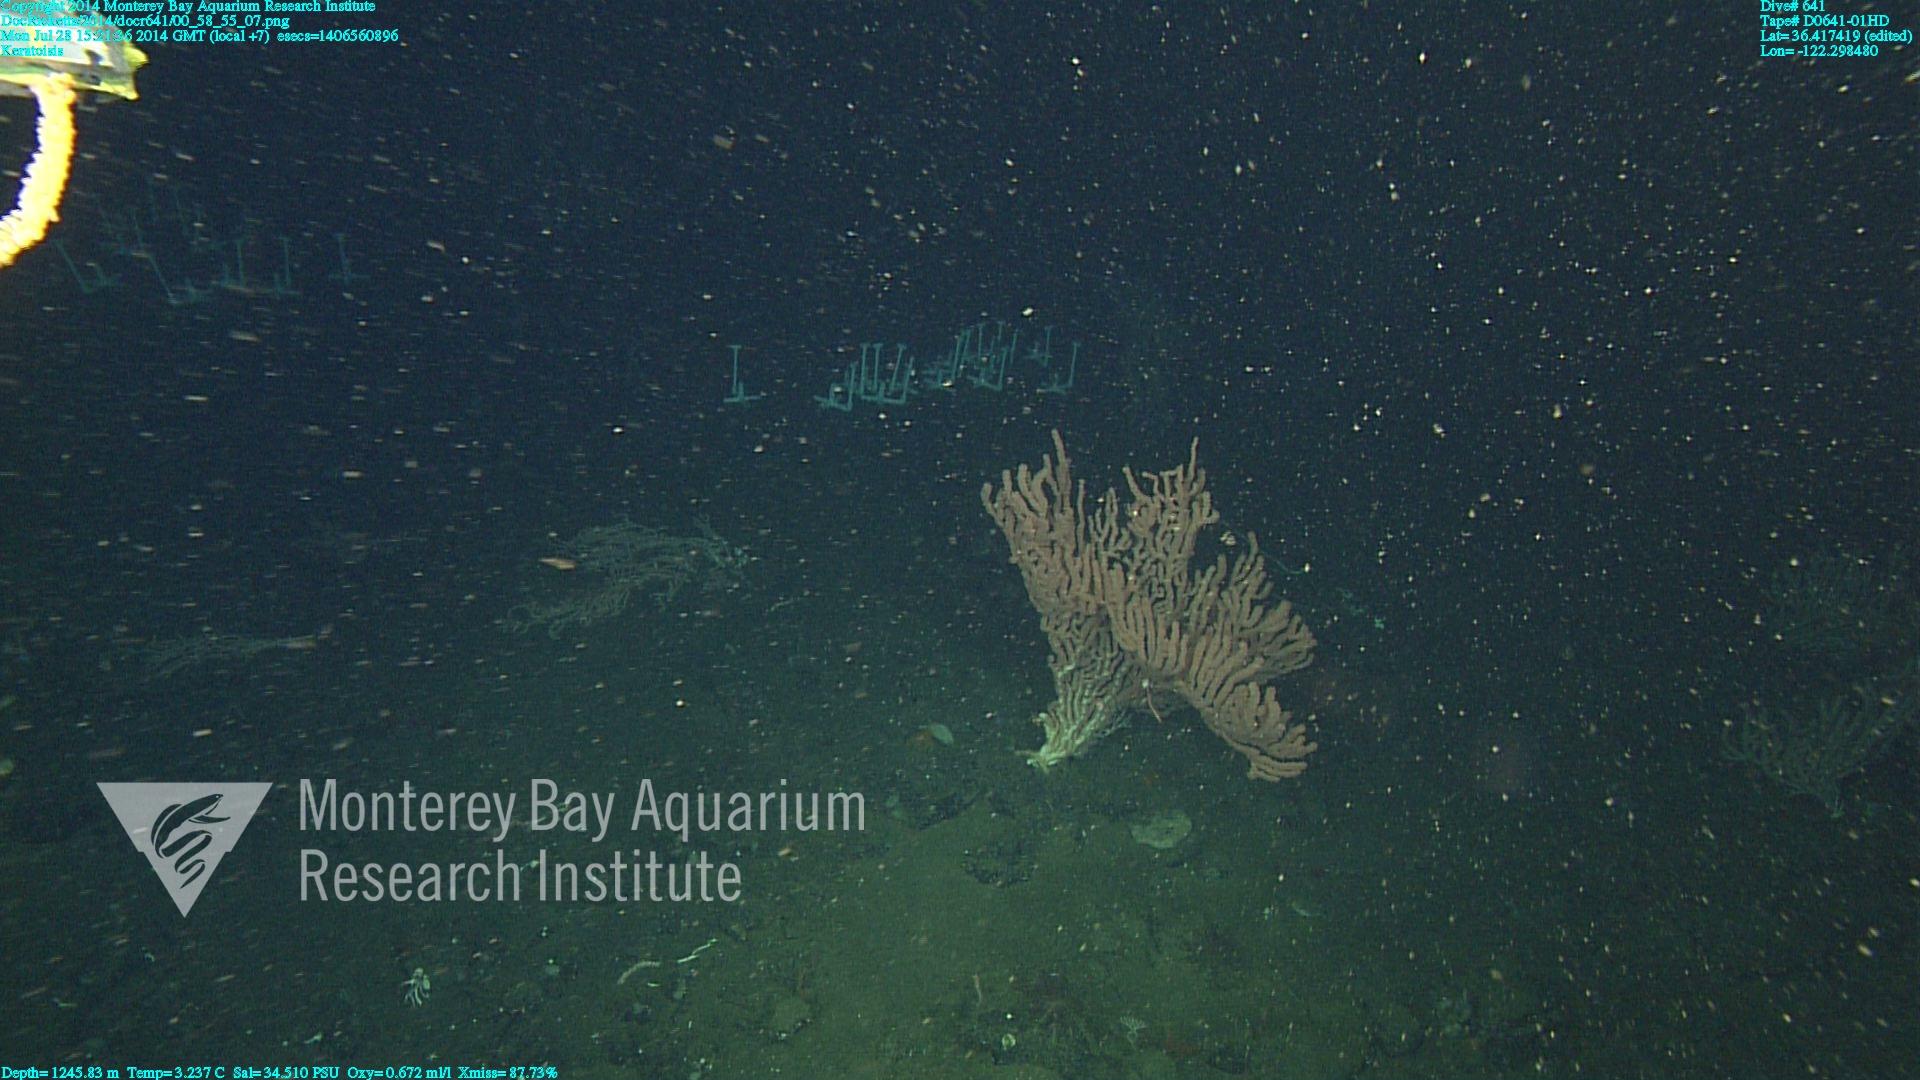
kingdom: Animalia
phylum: Cnidaria
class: Anthozoa
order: Scleralcyonacea
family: Keratoisididae
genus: Keratoisis
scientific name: Keratoisis
